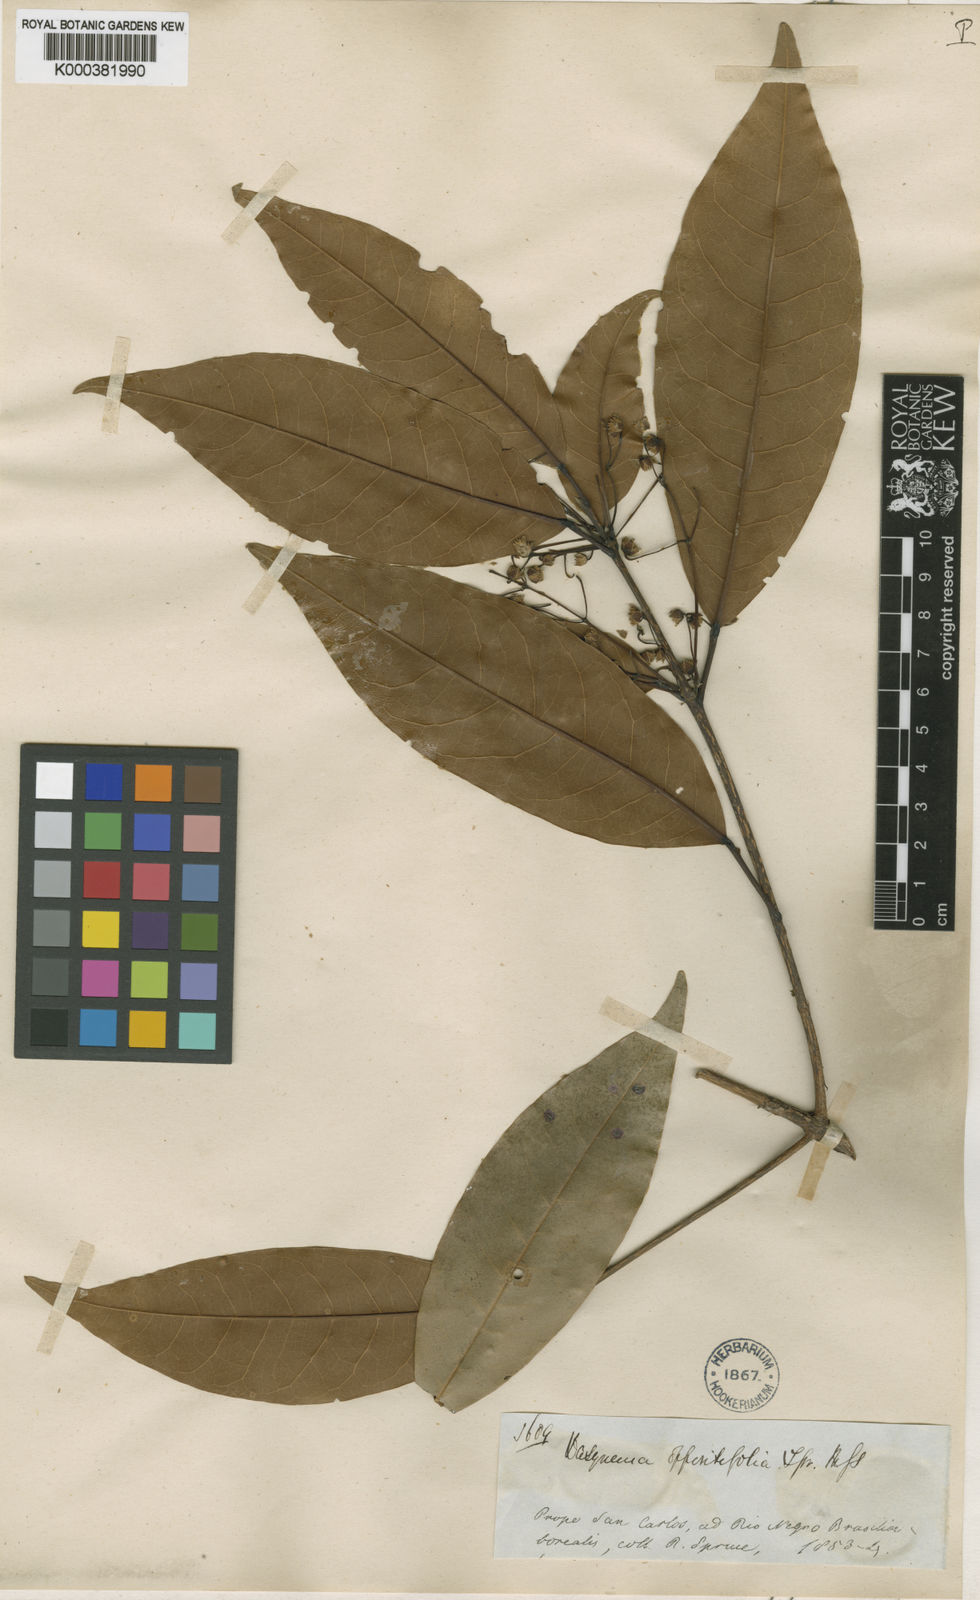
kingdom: Plantae
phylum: Tracheophyta
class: Magnoliopsida
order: Oxalidales
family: Elaeocarpaceae
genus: Sloanea
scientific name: Sloanea laurifolia
